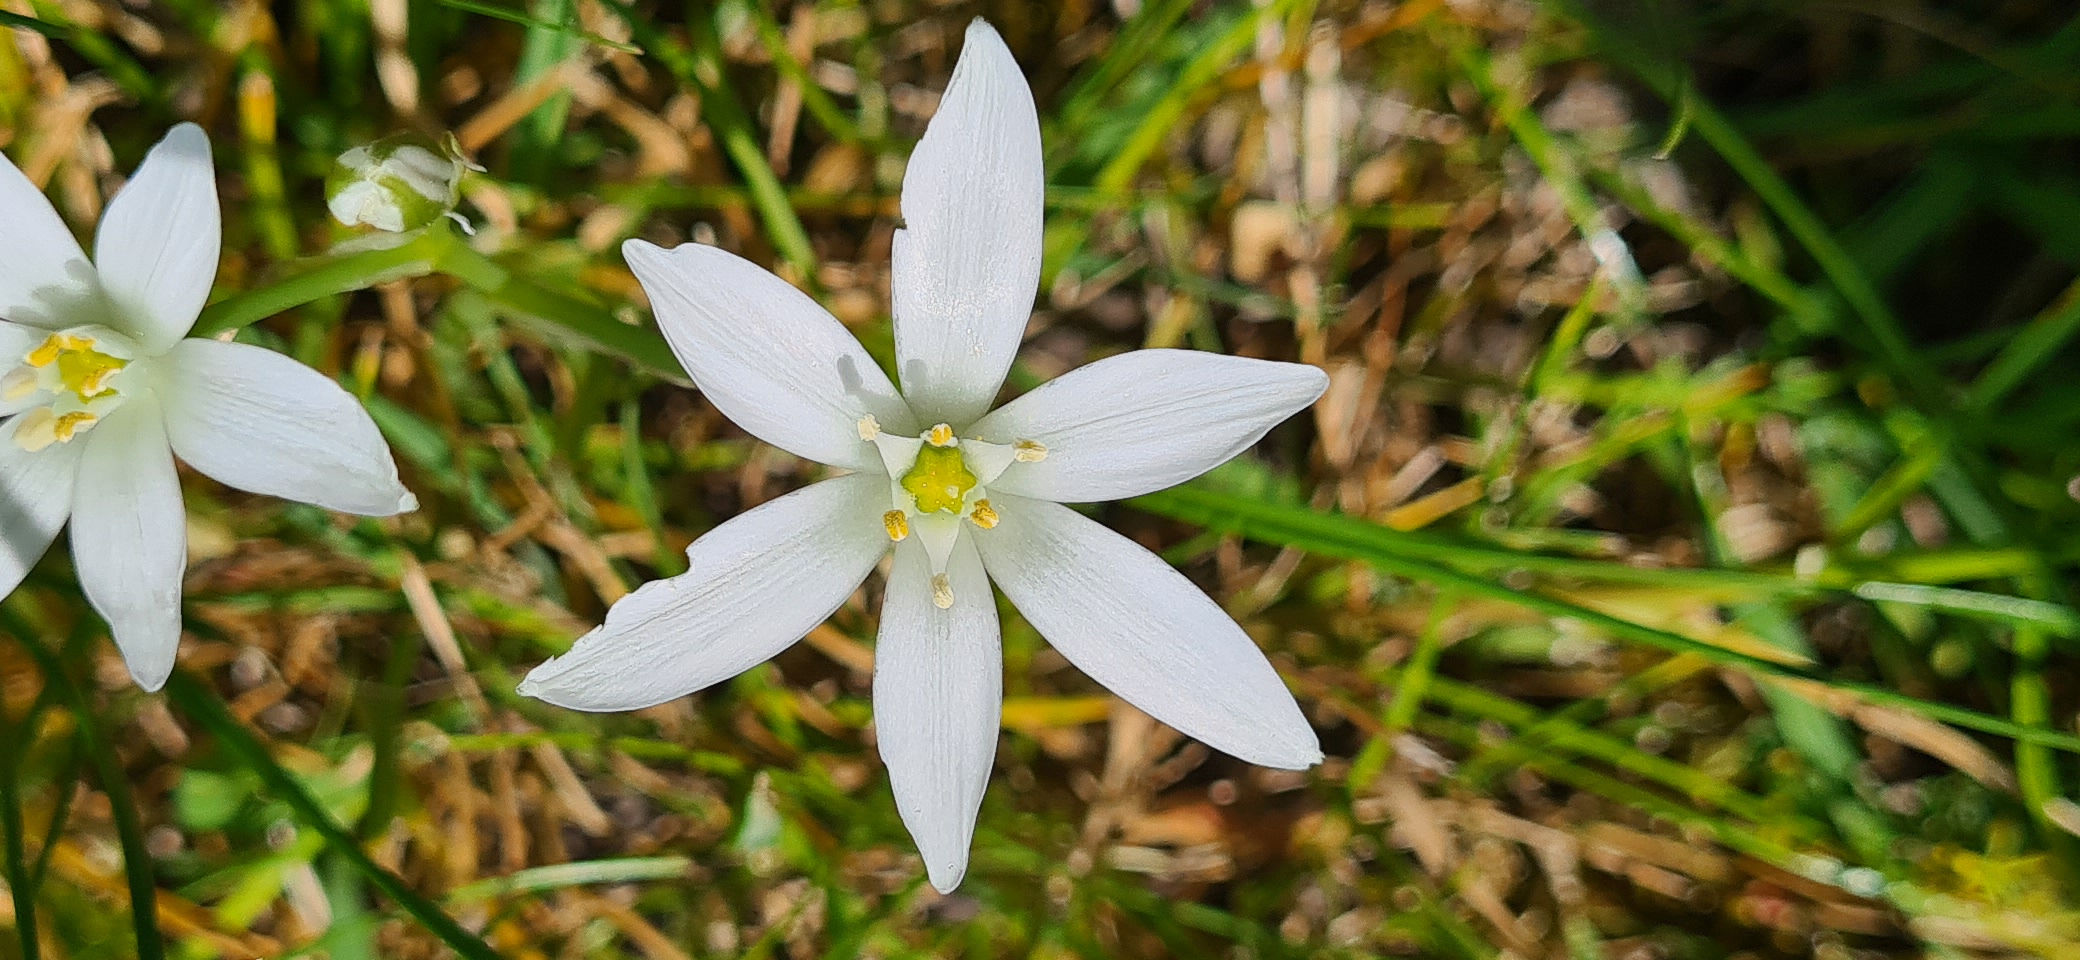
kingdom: Plantae
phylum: Tracheophyta
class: Liliopsida
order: Asparagales
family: Asparagaceae
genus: Ornithogalum
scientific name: Ornithogalum umbellatum
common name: Kost-fuglemælk
